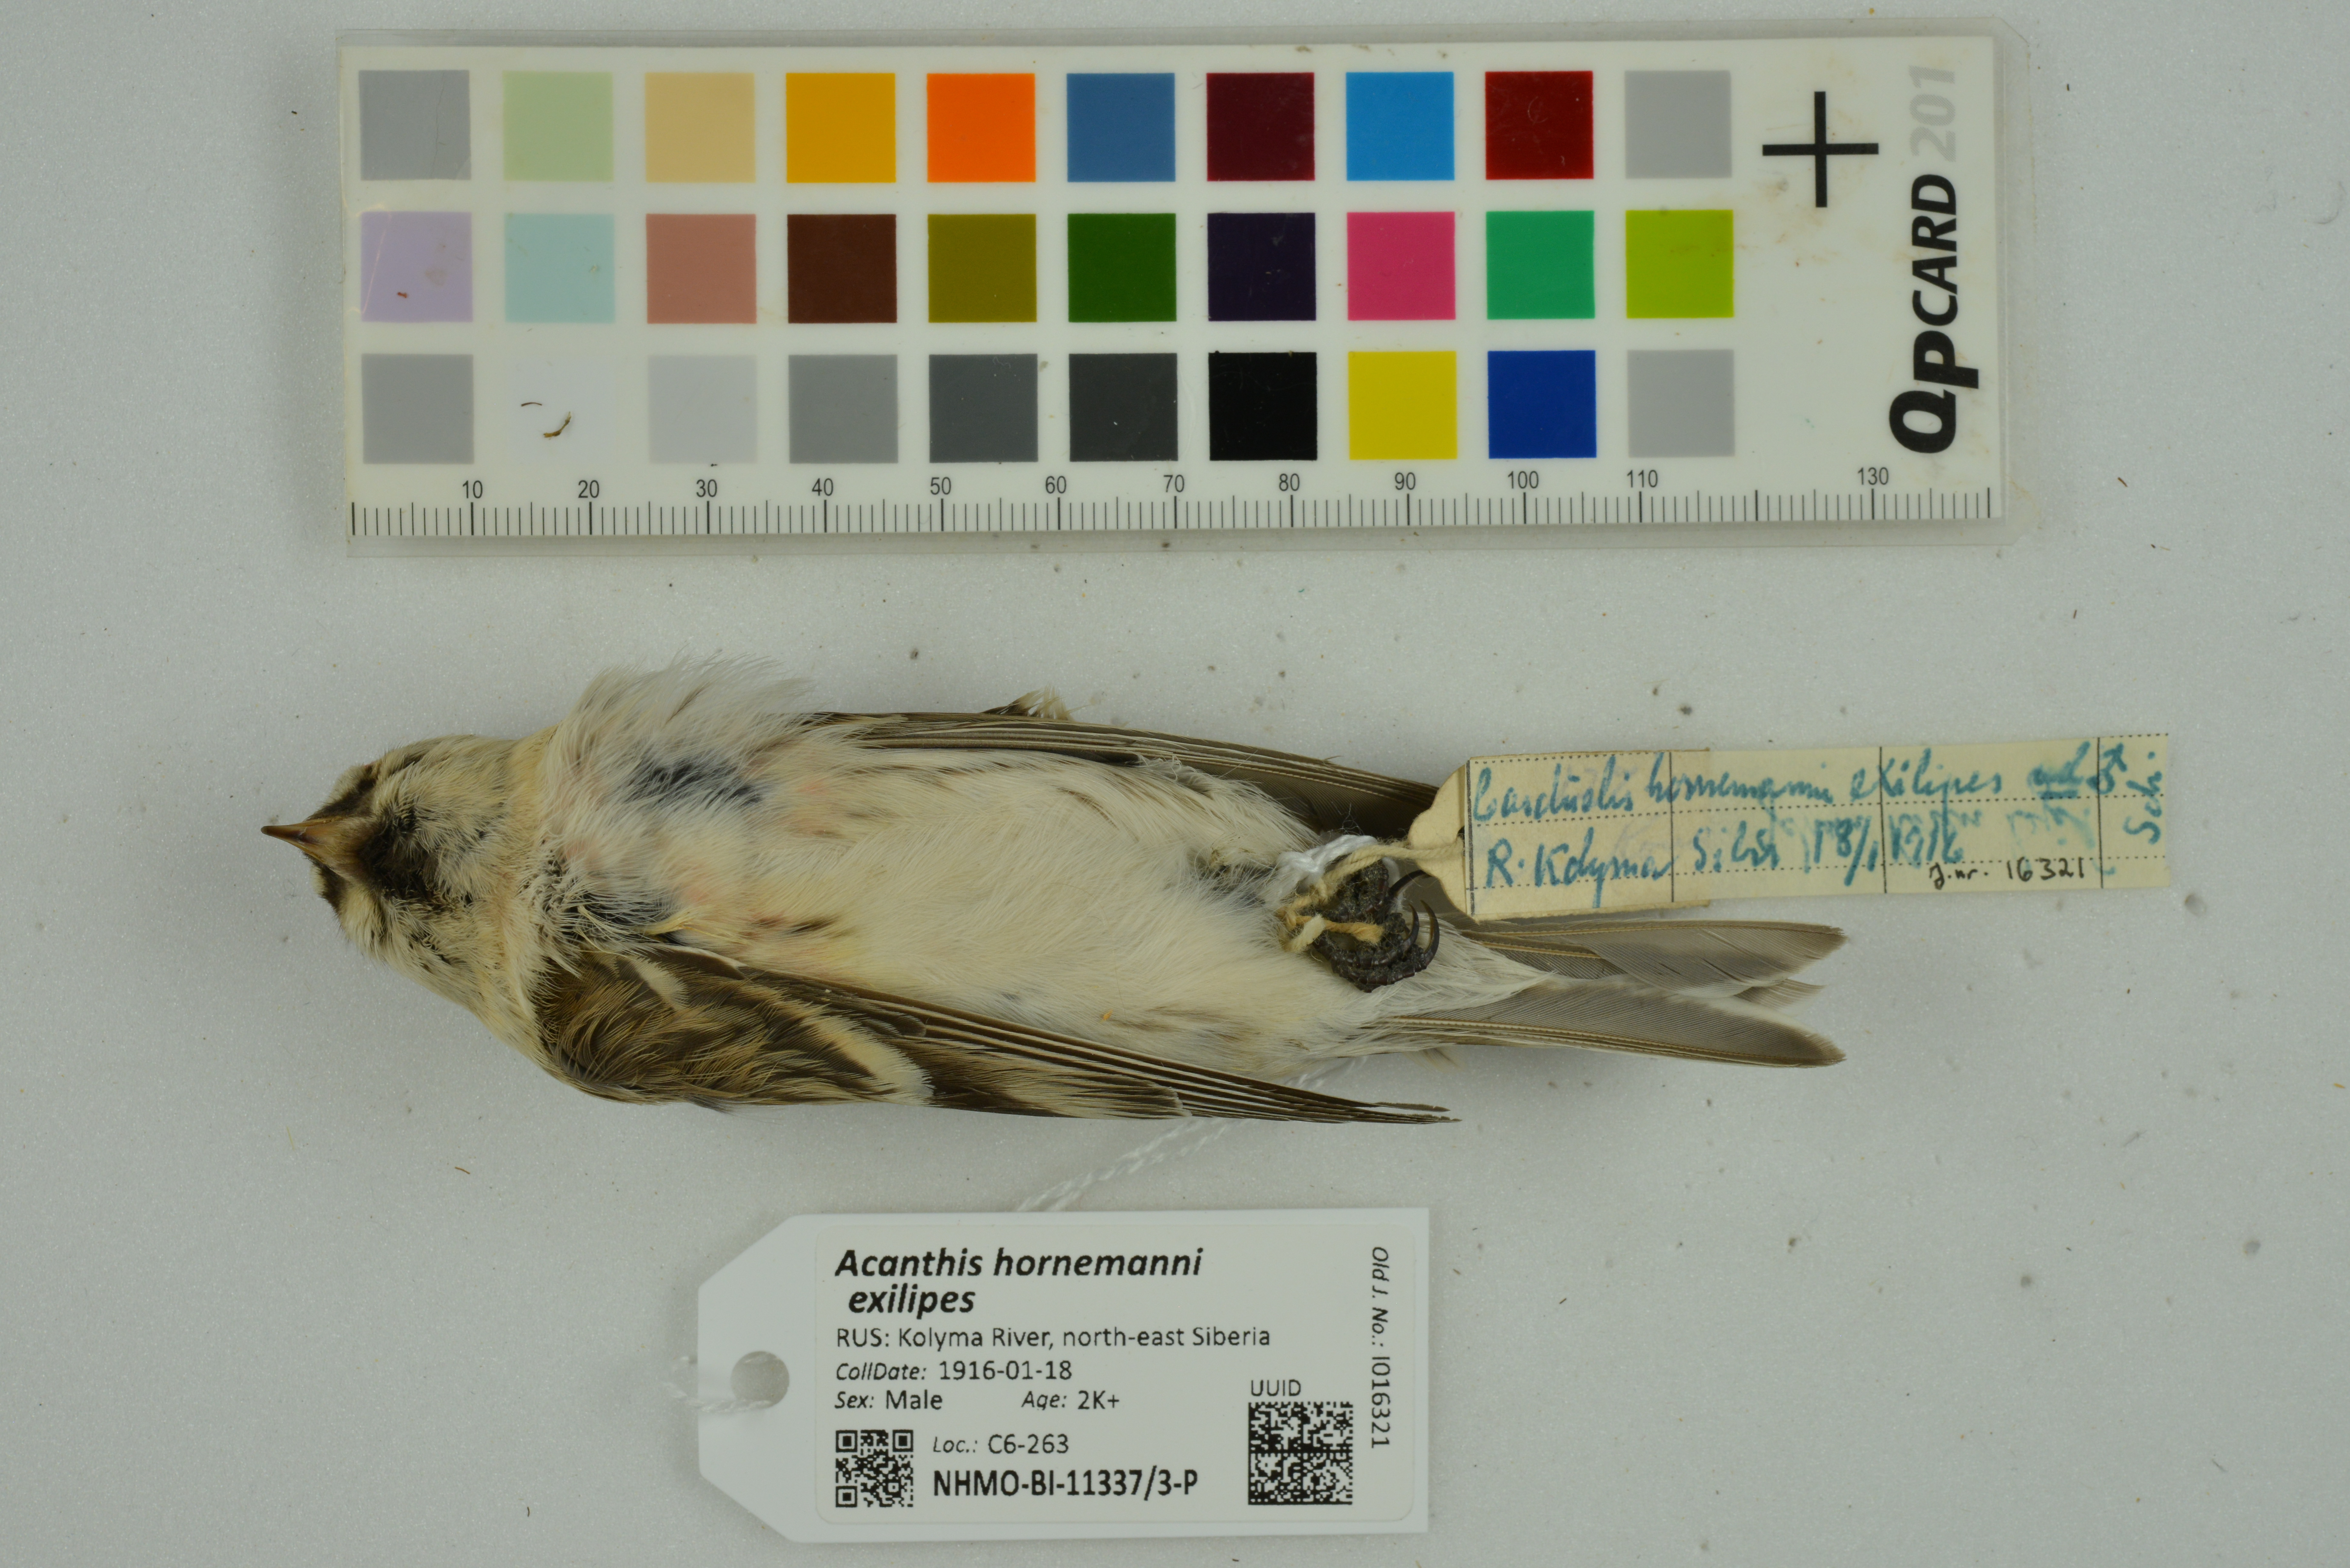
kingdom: Animalia
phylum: Chordata
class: Aves
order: Passeriformes
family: Fringillidae
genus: Acanthis
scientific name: Acanthis hornemanni
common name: Arctic redpoll
